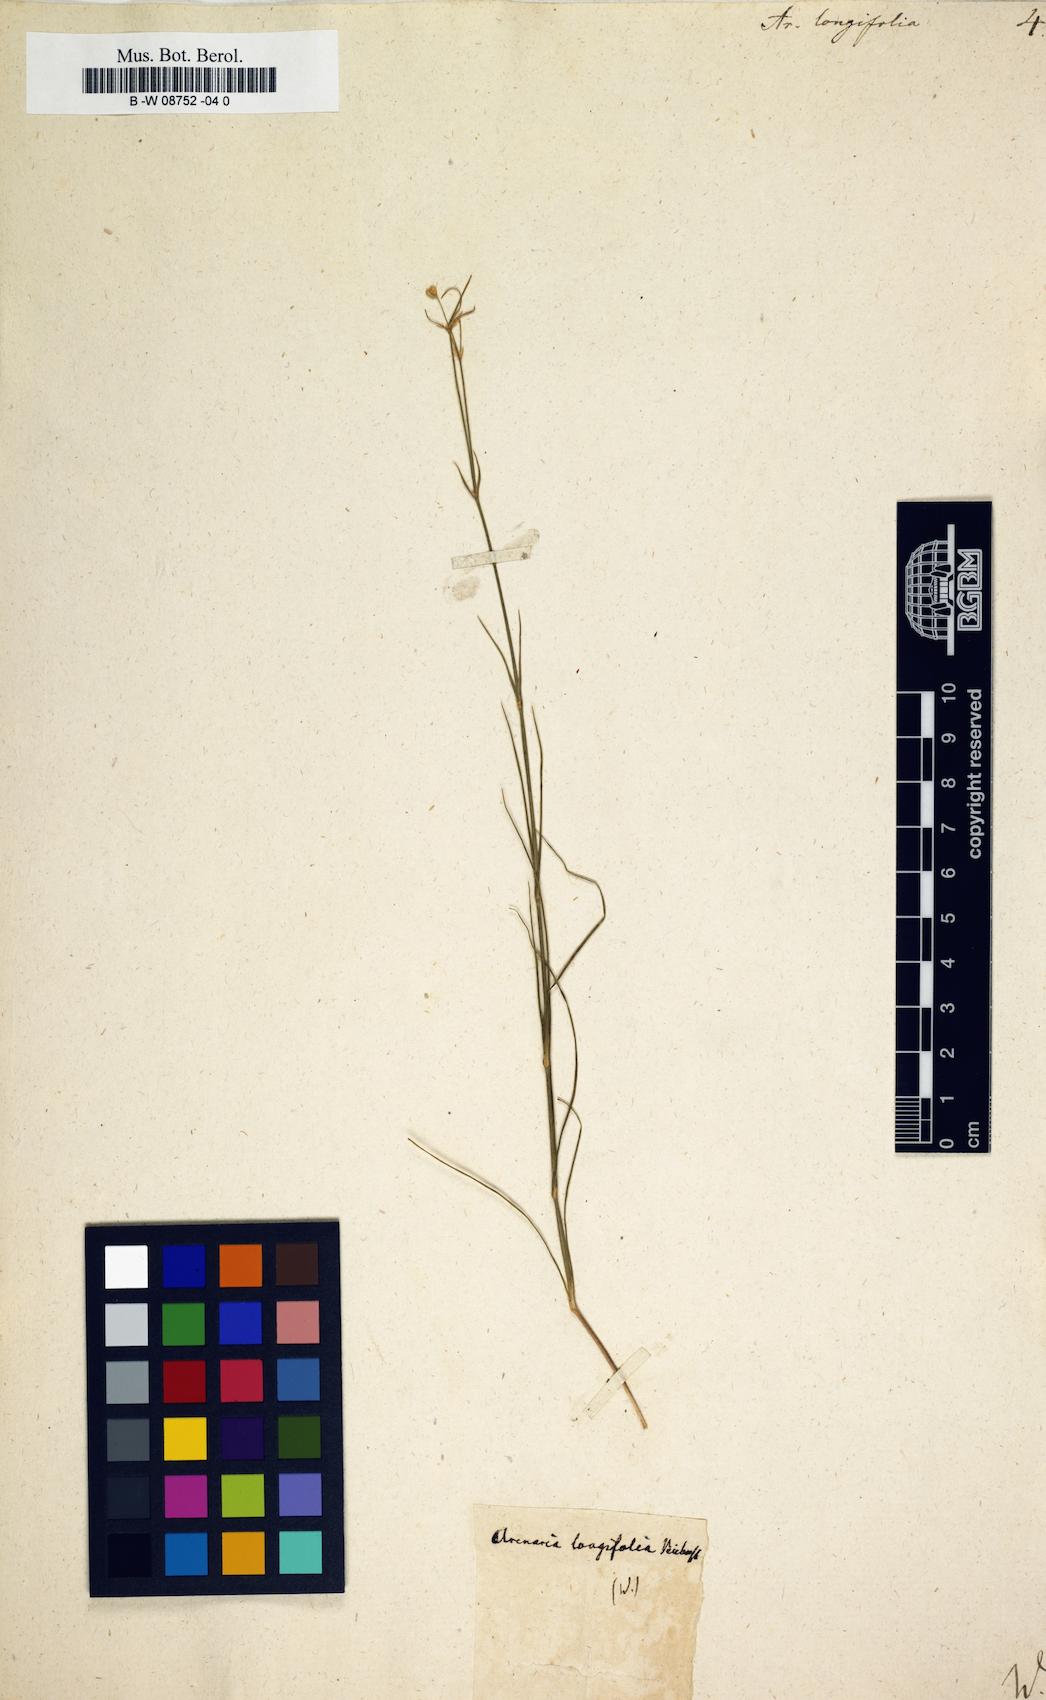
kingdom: Plantae
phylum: Tracheophyta
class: Magnoliopsida
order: Caryophyllales
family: Caryophyllaceae
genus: Eremogone
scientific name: Eremogone
